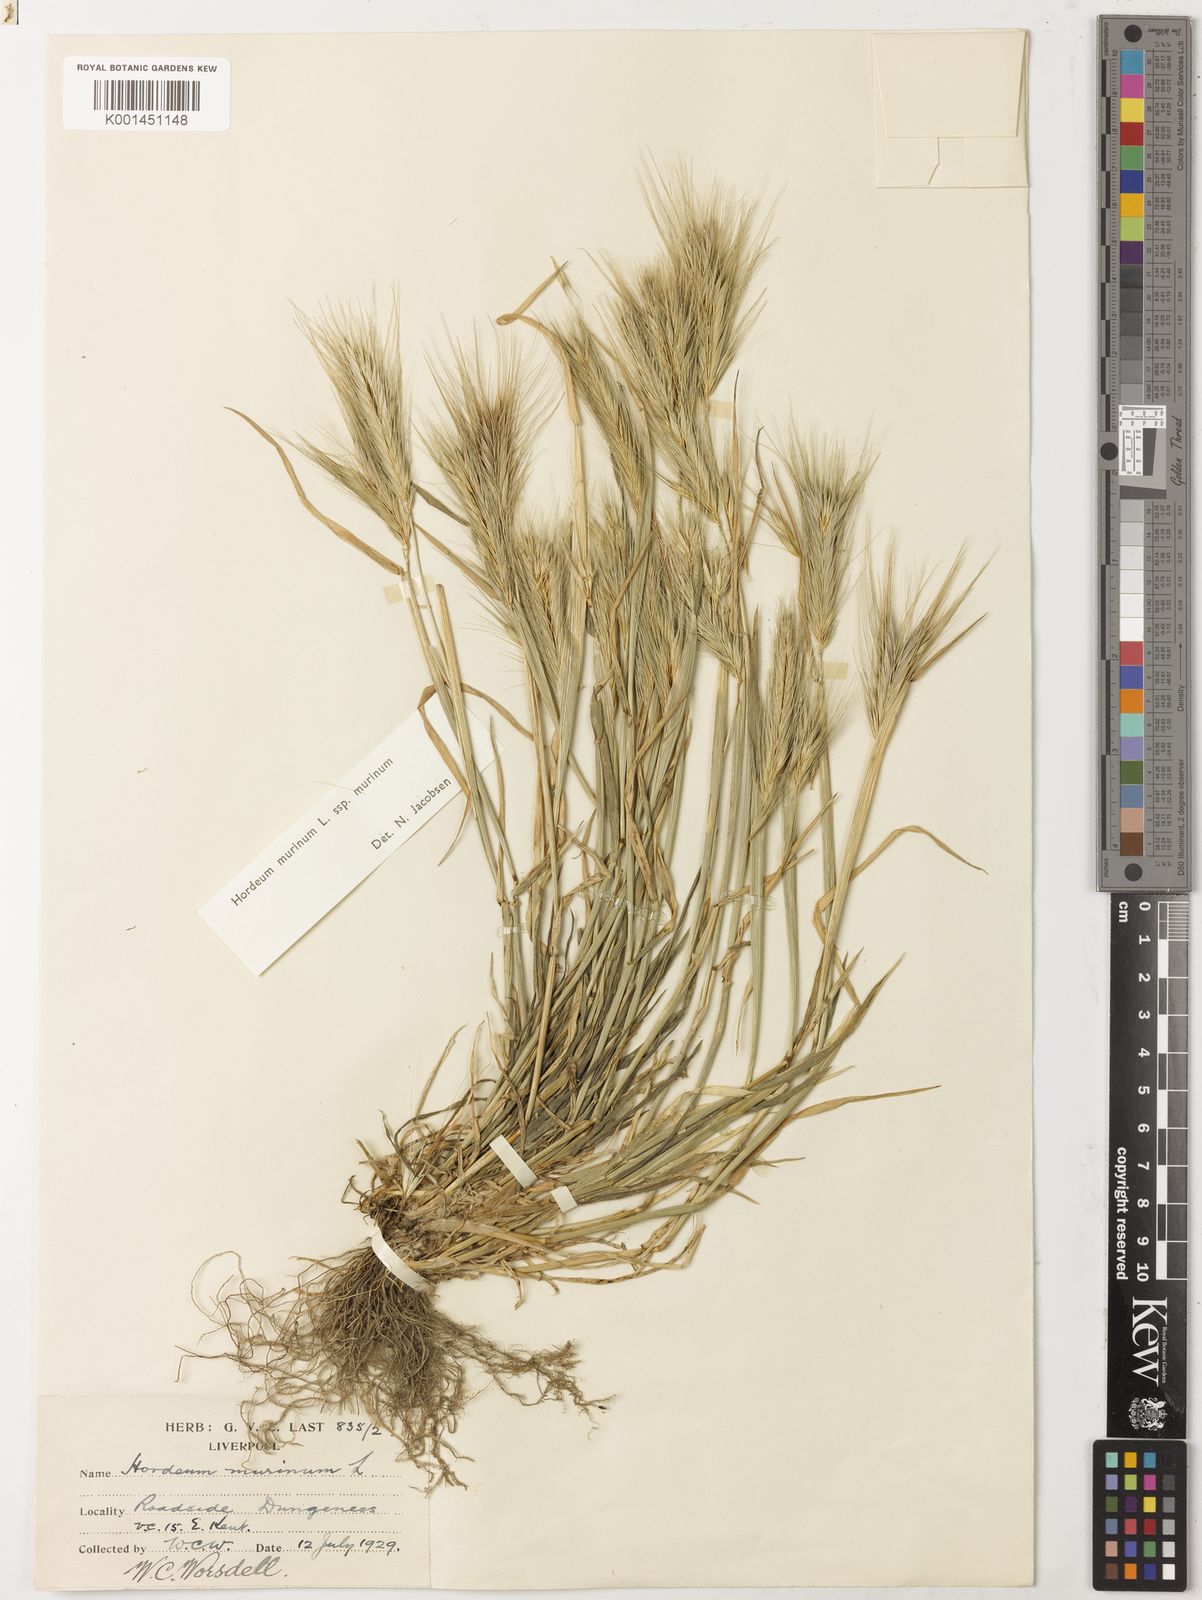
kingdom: Plantae
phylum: Tracheophyta
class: Liliopsida
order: Poales
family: Poaceae
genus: Hordeum
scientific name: Hordeum murinum
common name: Wall barley
